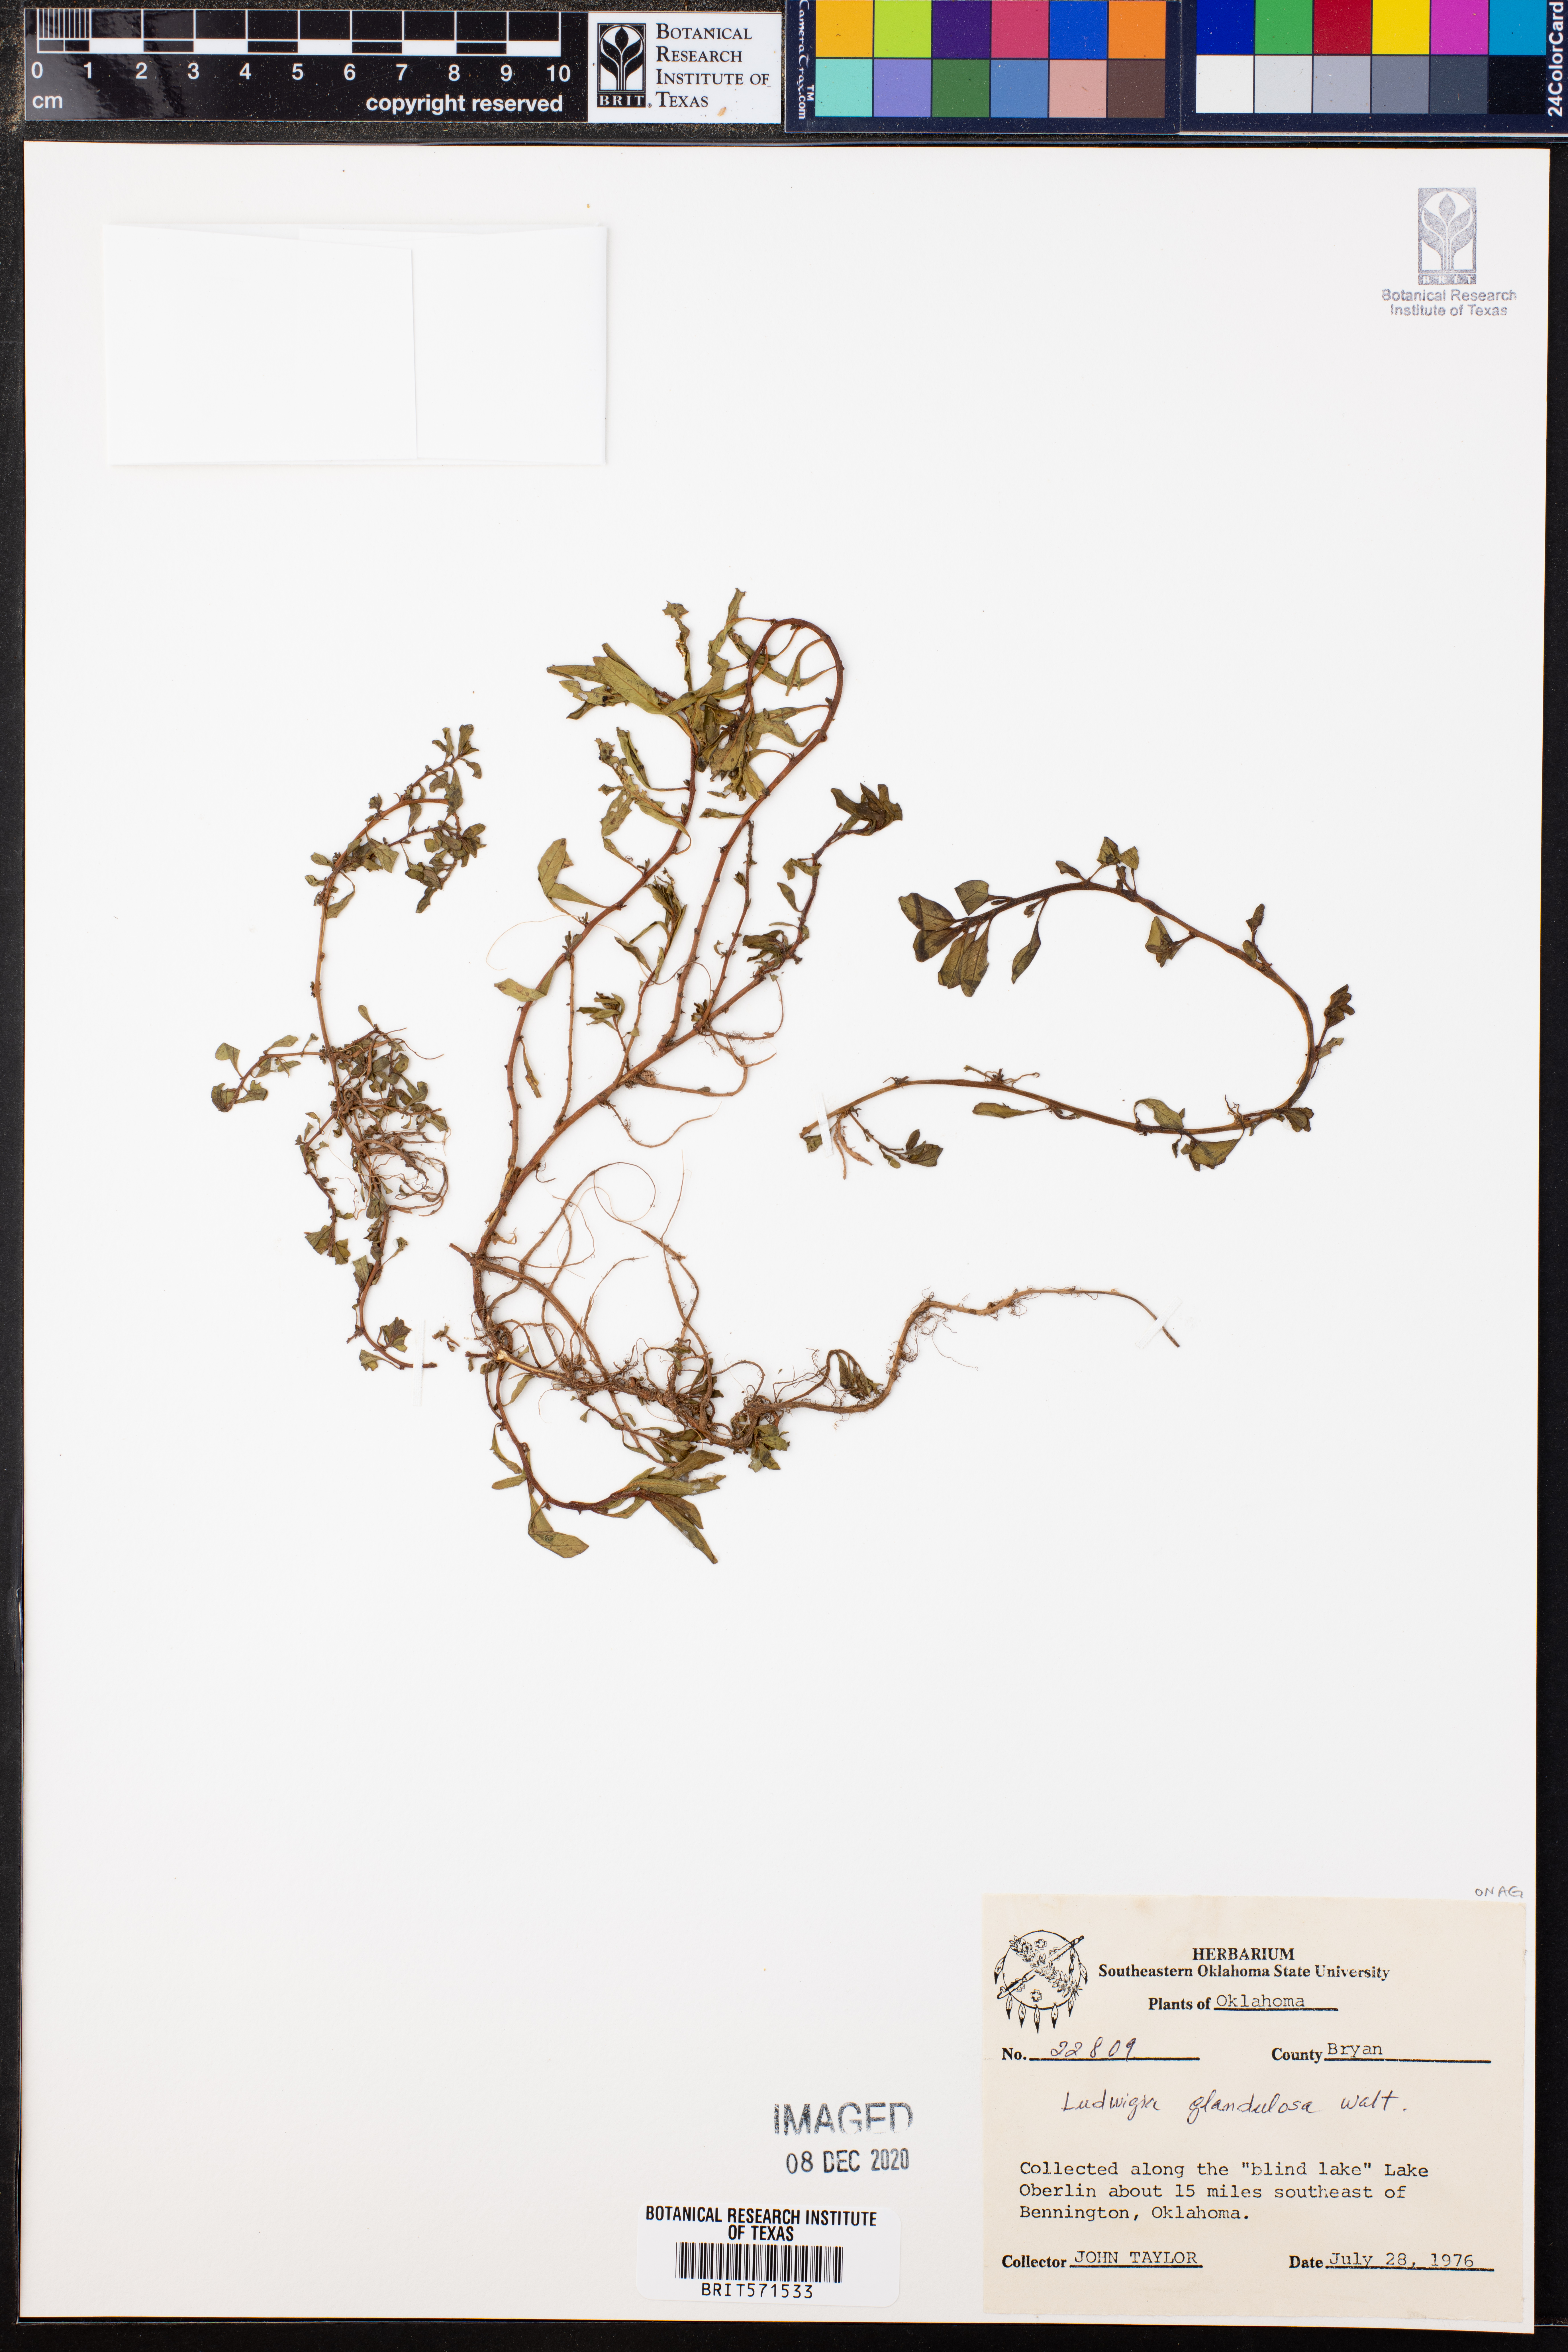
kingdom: Plantae
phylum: Tracheophyta
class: Magnoliopsida
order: Myrtales
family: Onagraceae
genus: Ludwigia
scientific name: Ludwigia glandulosa
